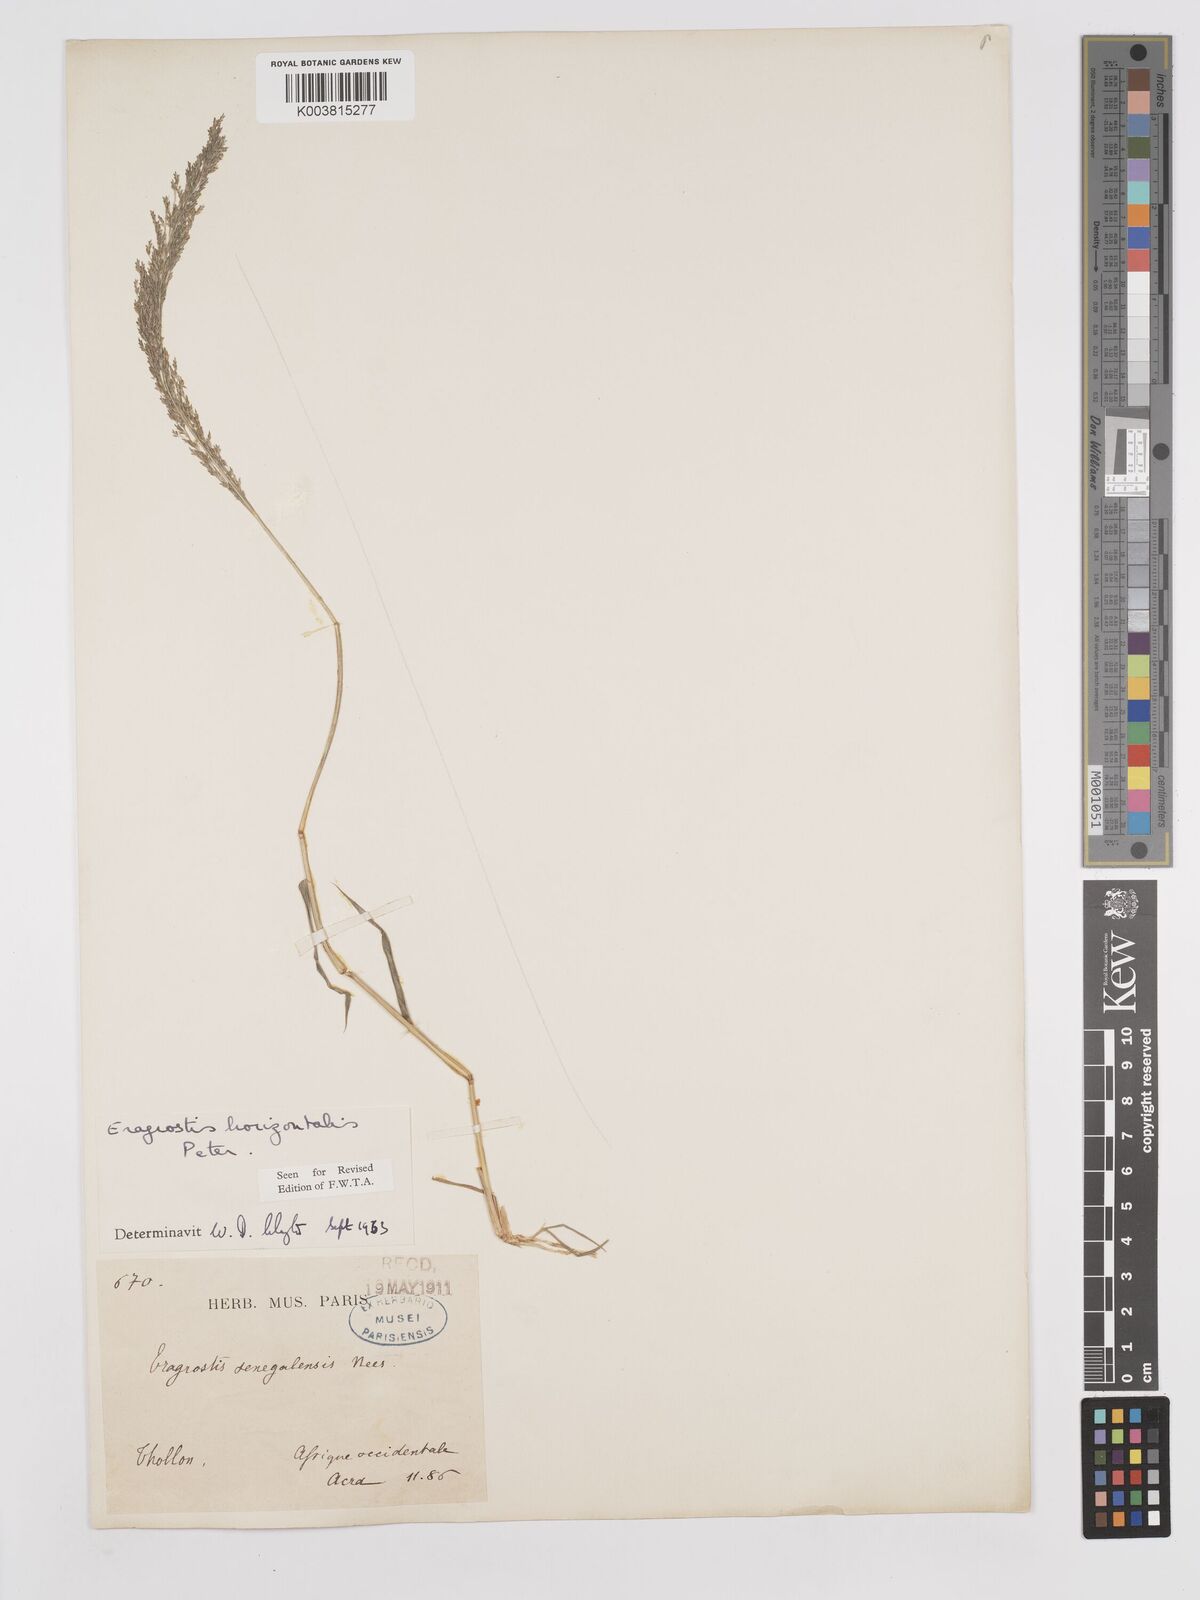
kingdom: Plantae
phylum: Tracheophyta
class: Liliopsida
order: Poales
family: Poaceae
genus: Eragrostis
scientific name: Eragrostis cylindriflora
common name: Cylinderflower lovegrass
